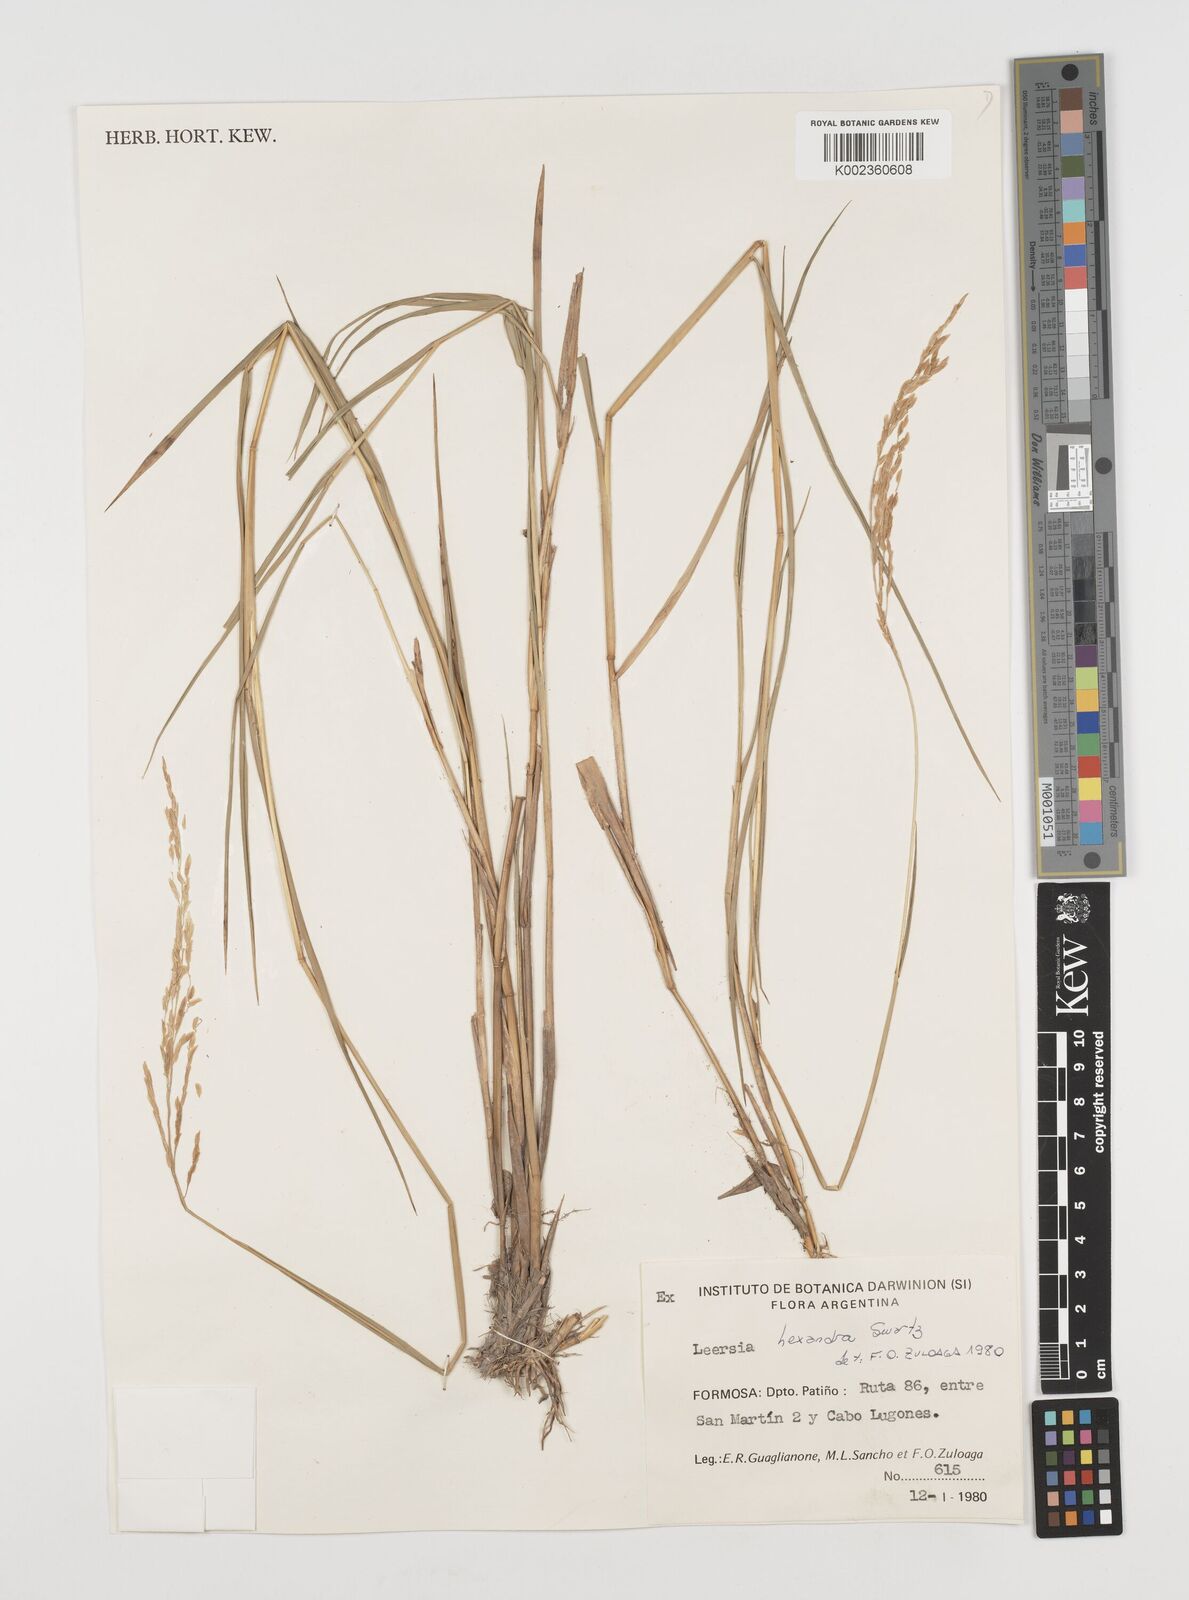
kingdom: Plantae
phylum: Tracheophyta
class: Liliopsida
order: Poales
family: Poaceae
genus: Leersia
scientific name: Leersia hexandra
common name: Southern cut grass
